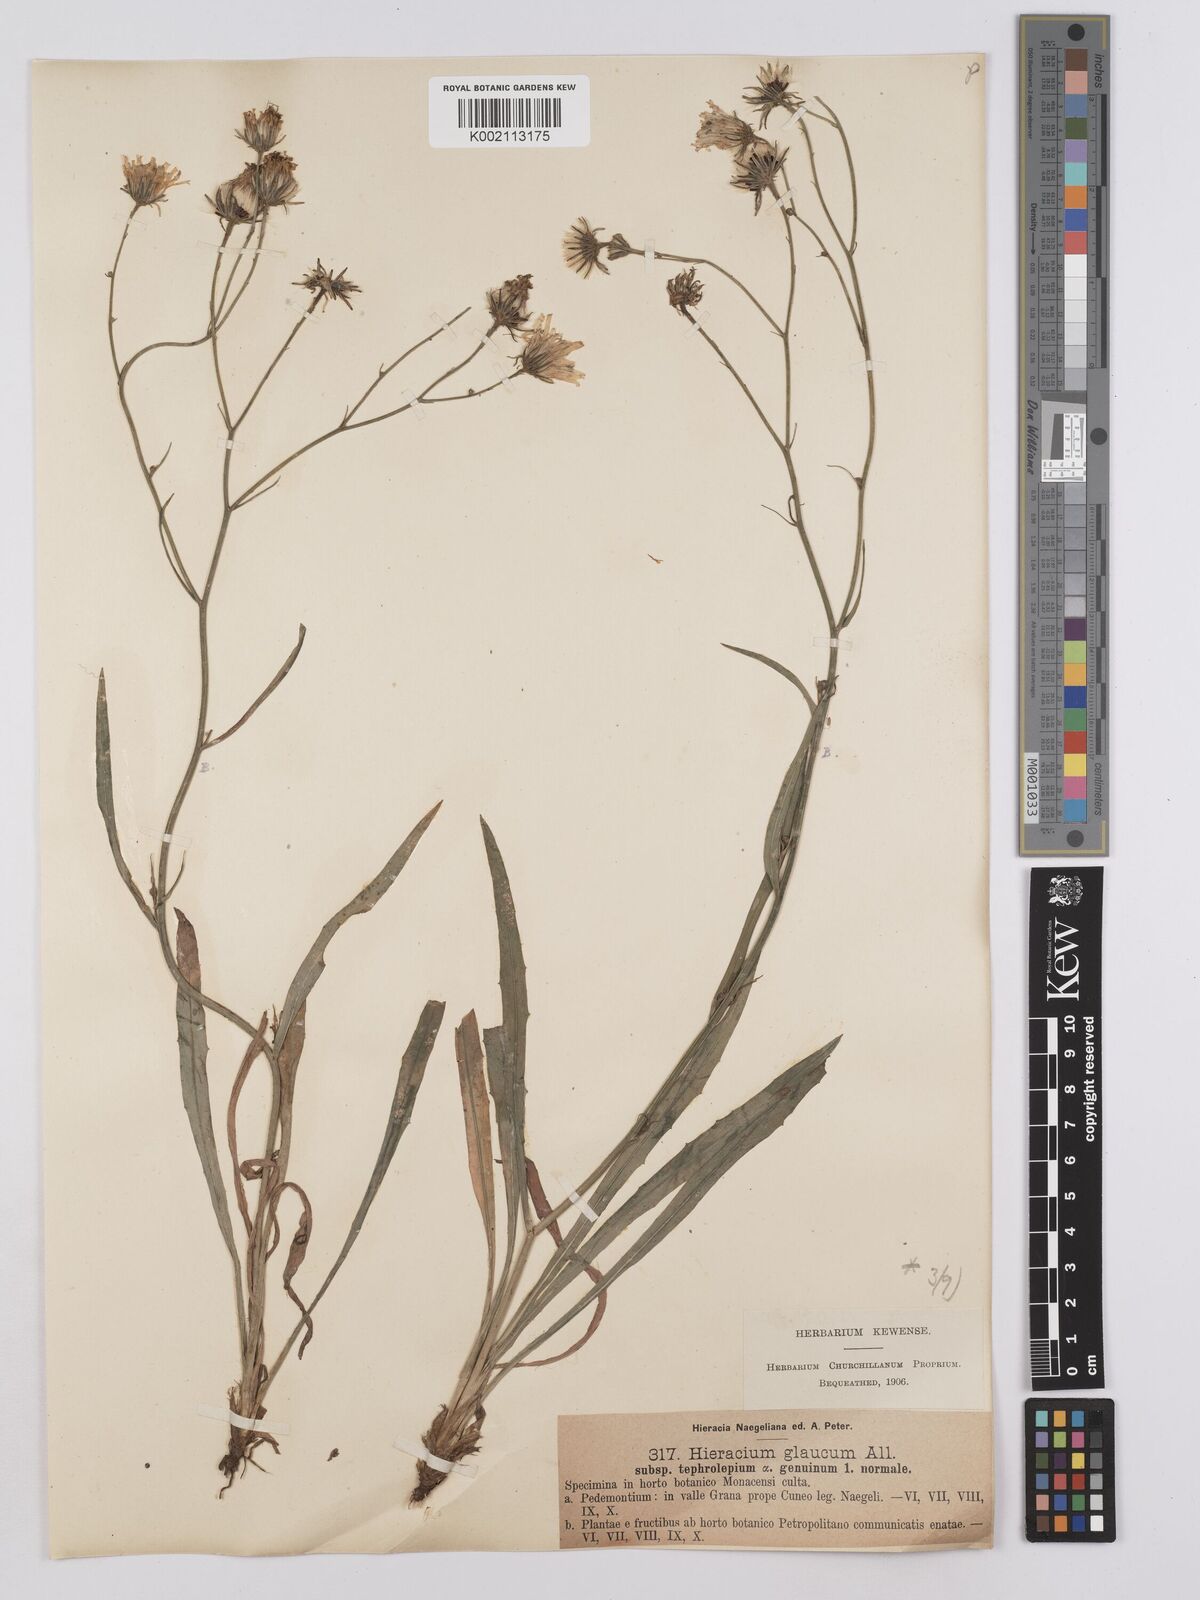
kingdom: Plantae
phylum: Tracheophyta
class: Magnoliopsida
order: Asterales
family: Asteraceae
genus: Hieracium
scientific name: Hieracium glaucum
